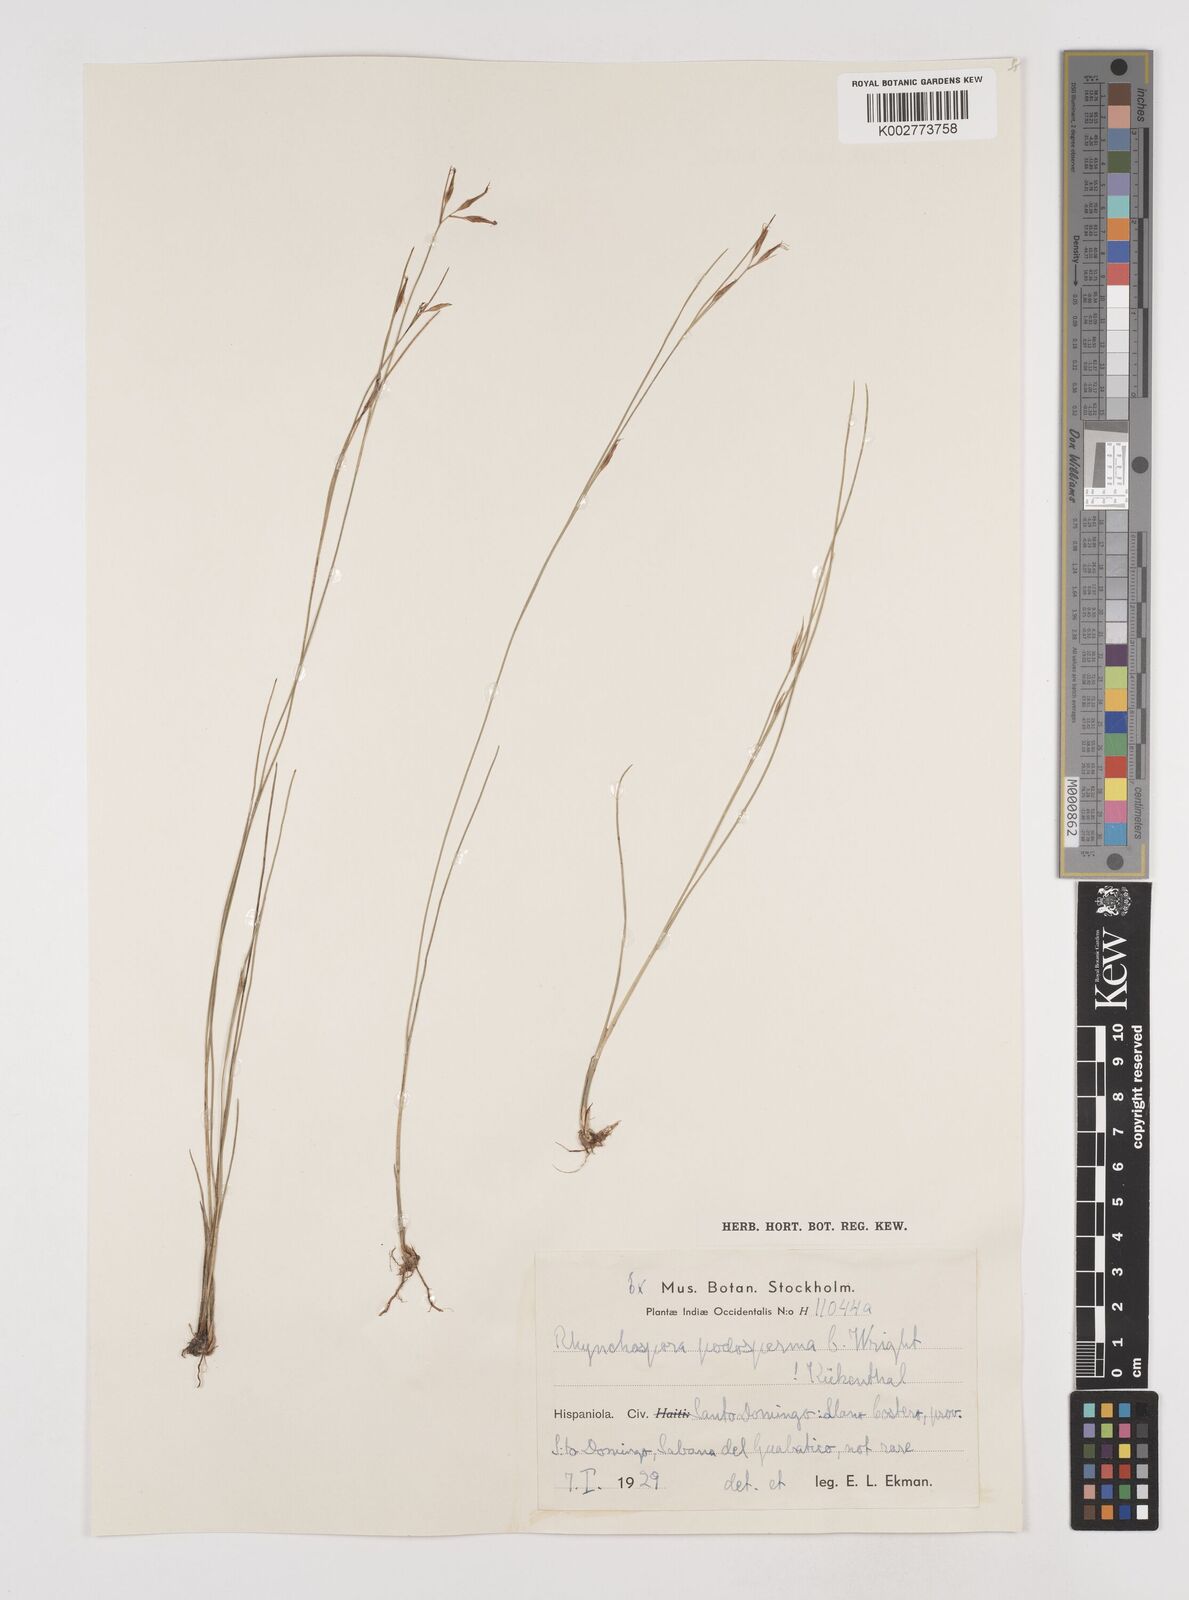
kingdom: Plantae
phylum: Tracheophyta
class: Liliopsida
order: Poales
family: Cyperaceae
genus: Rhynchospora
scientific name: Rhynchospora filiformis
